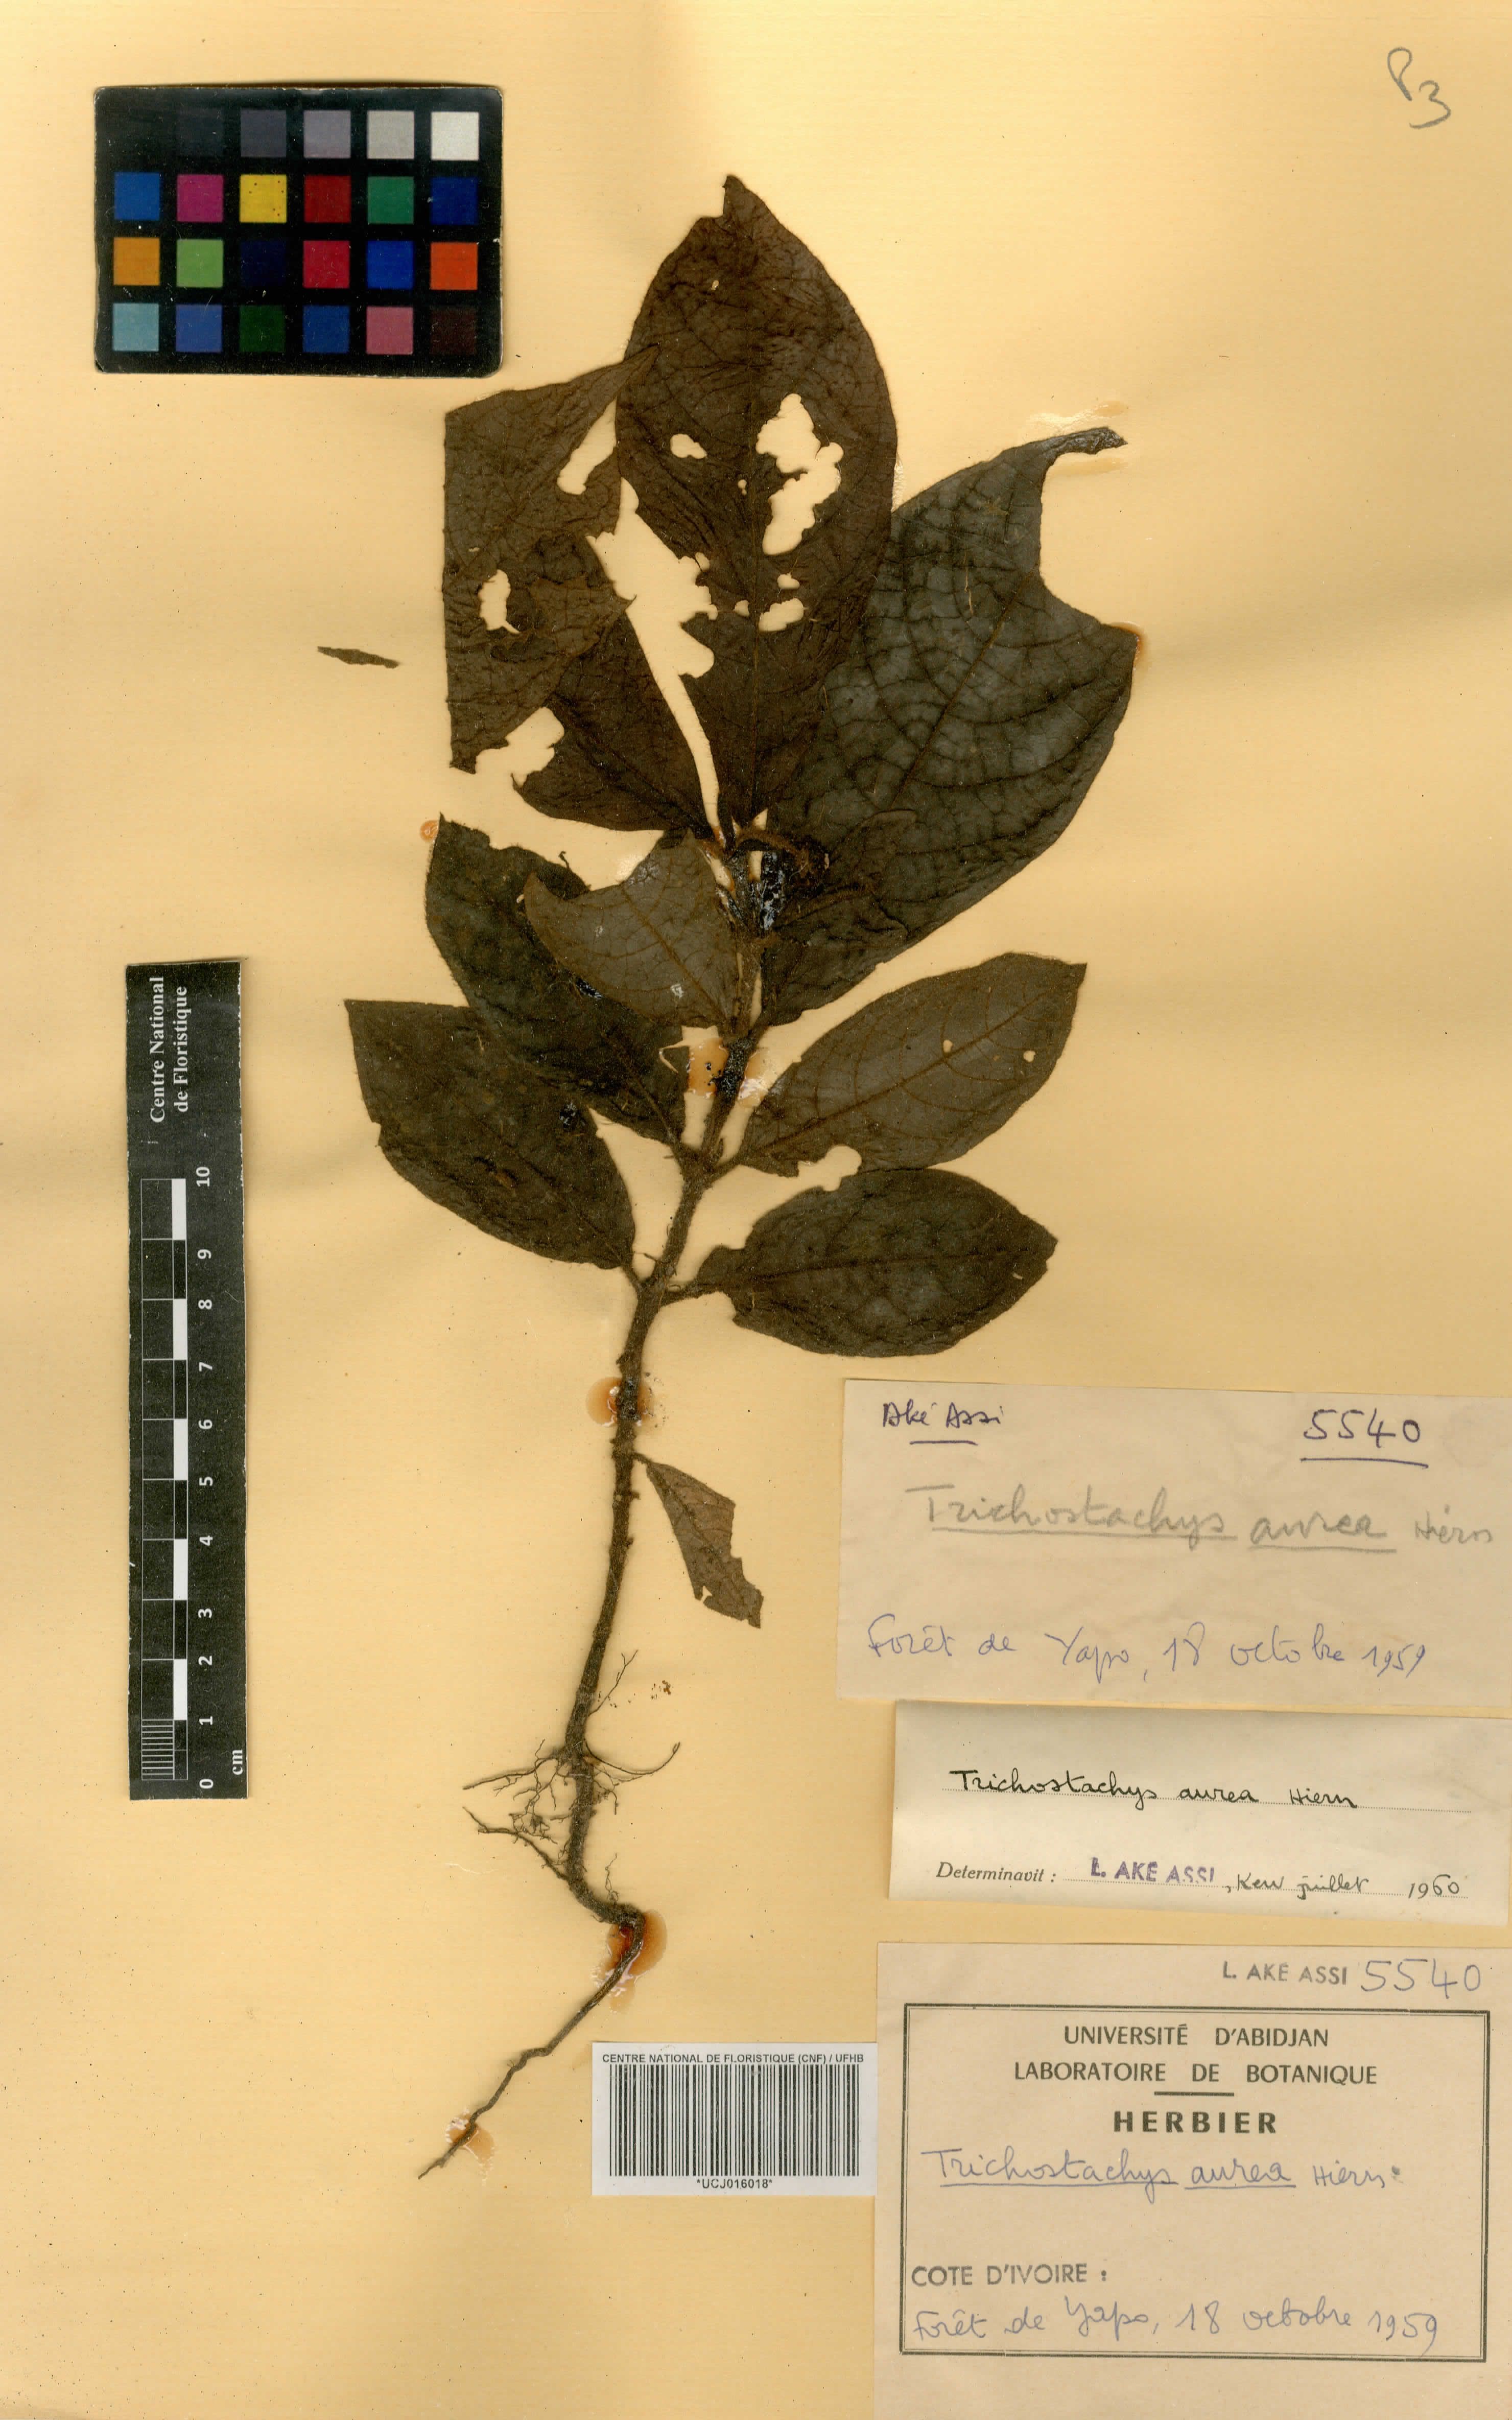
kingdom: Plantae
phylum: Tracheophyta
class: Magnoliopsida
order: Gentianales
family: Rubiaceae
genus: Trichostachys
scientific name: Trichostachys aurea
